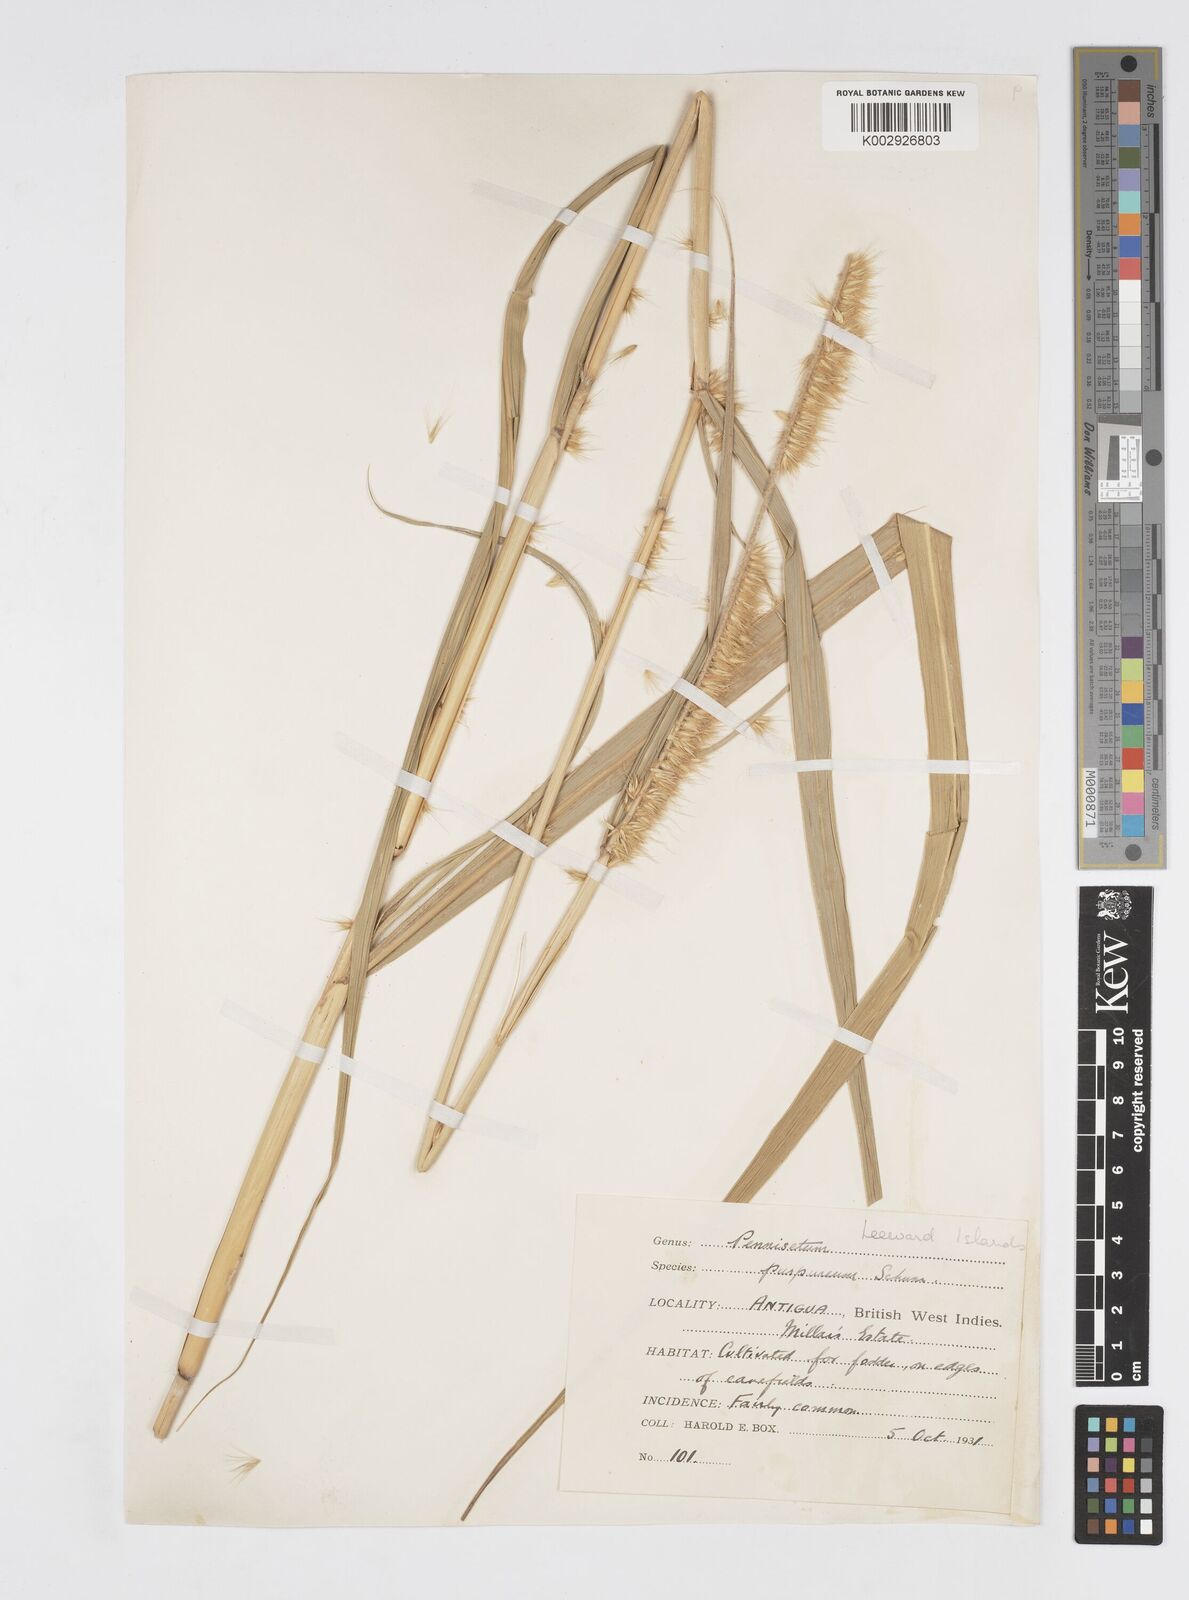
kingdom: Plantae
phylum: Tracheophyta
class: Liliopsida
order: Poales
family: Poaceae
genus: Cenchrus
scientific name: Cenchrus purpureus
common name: Elephant grass
